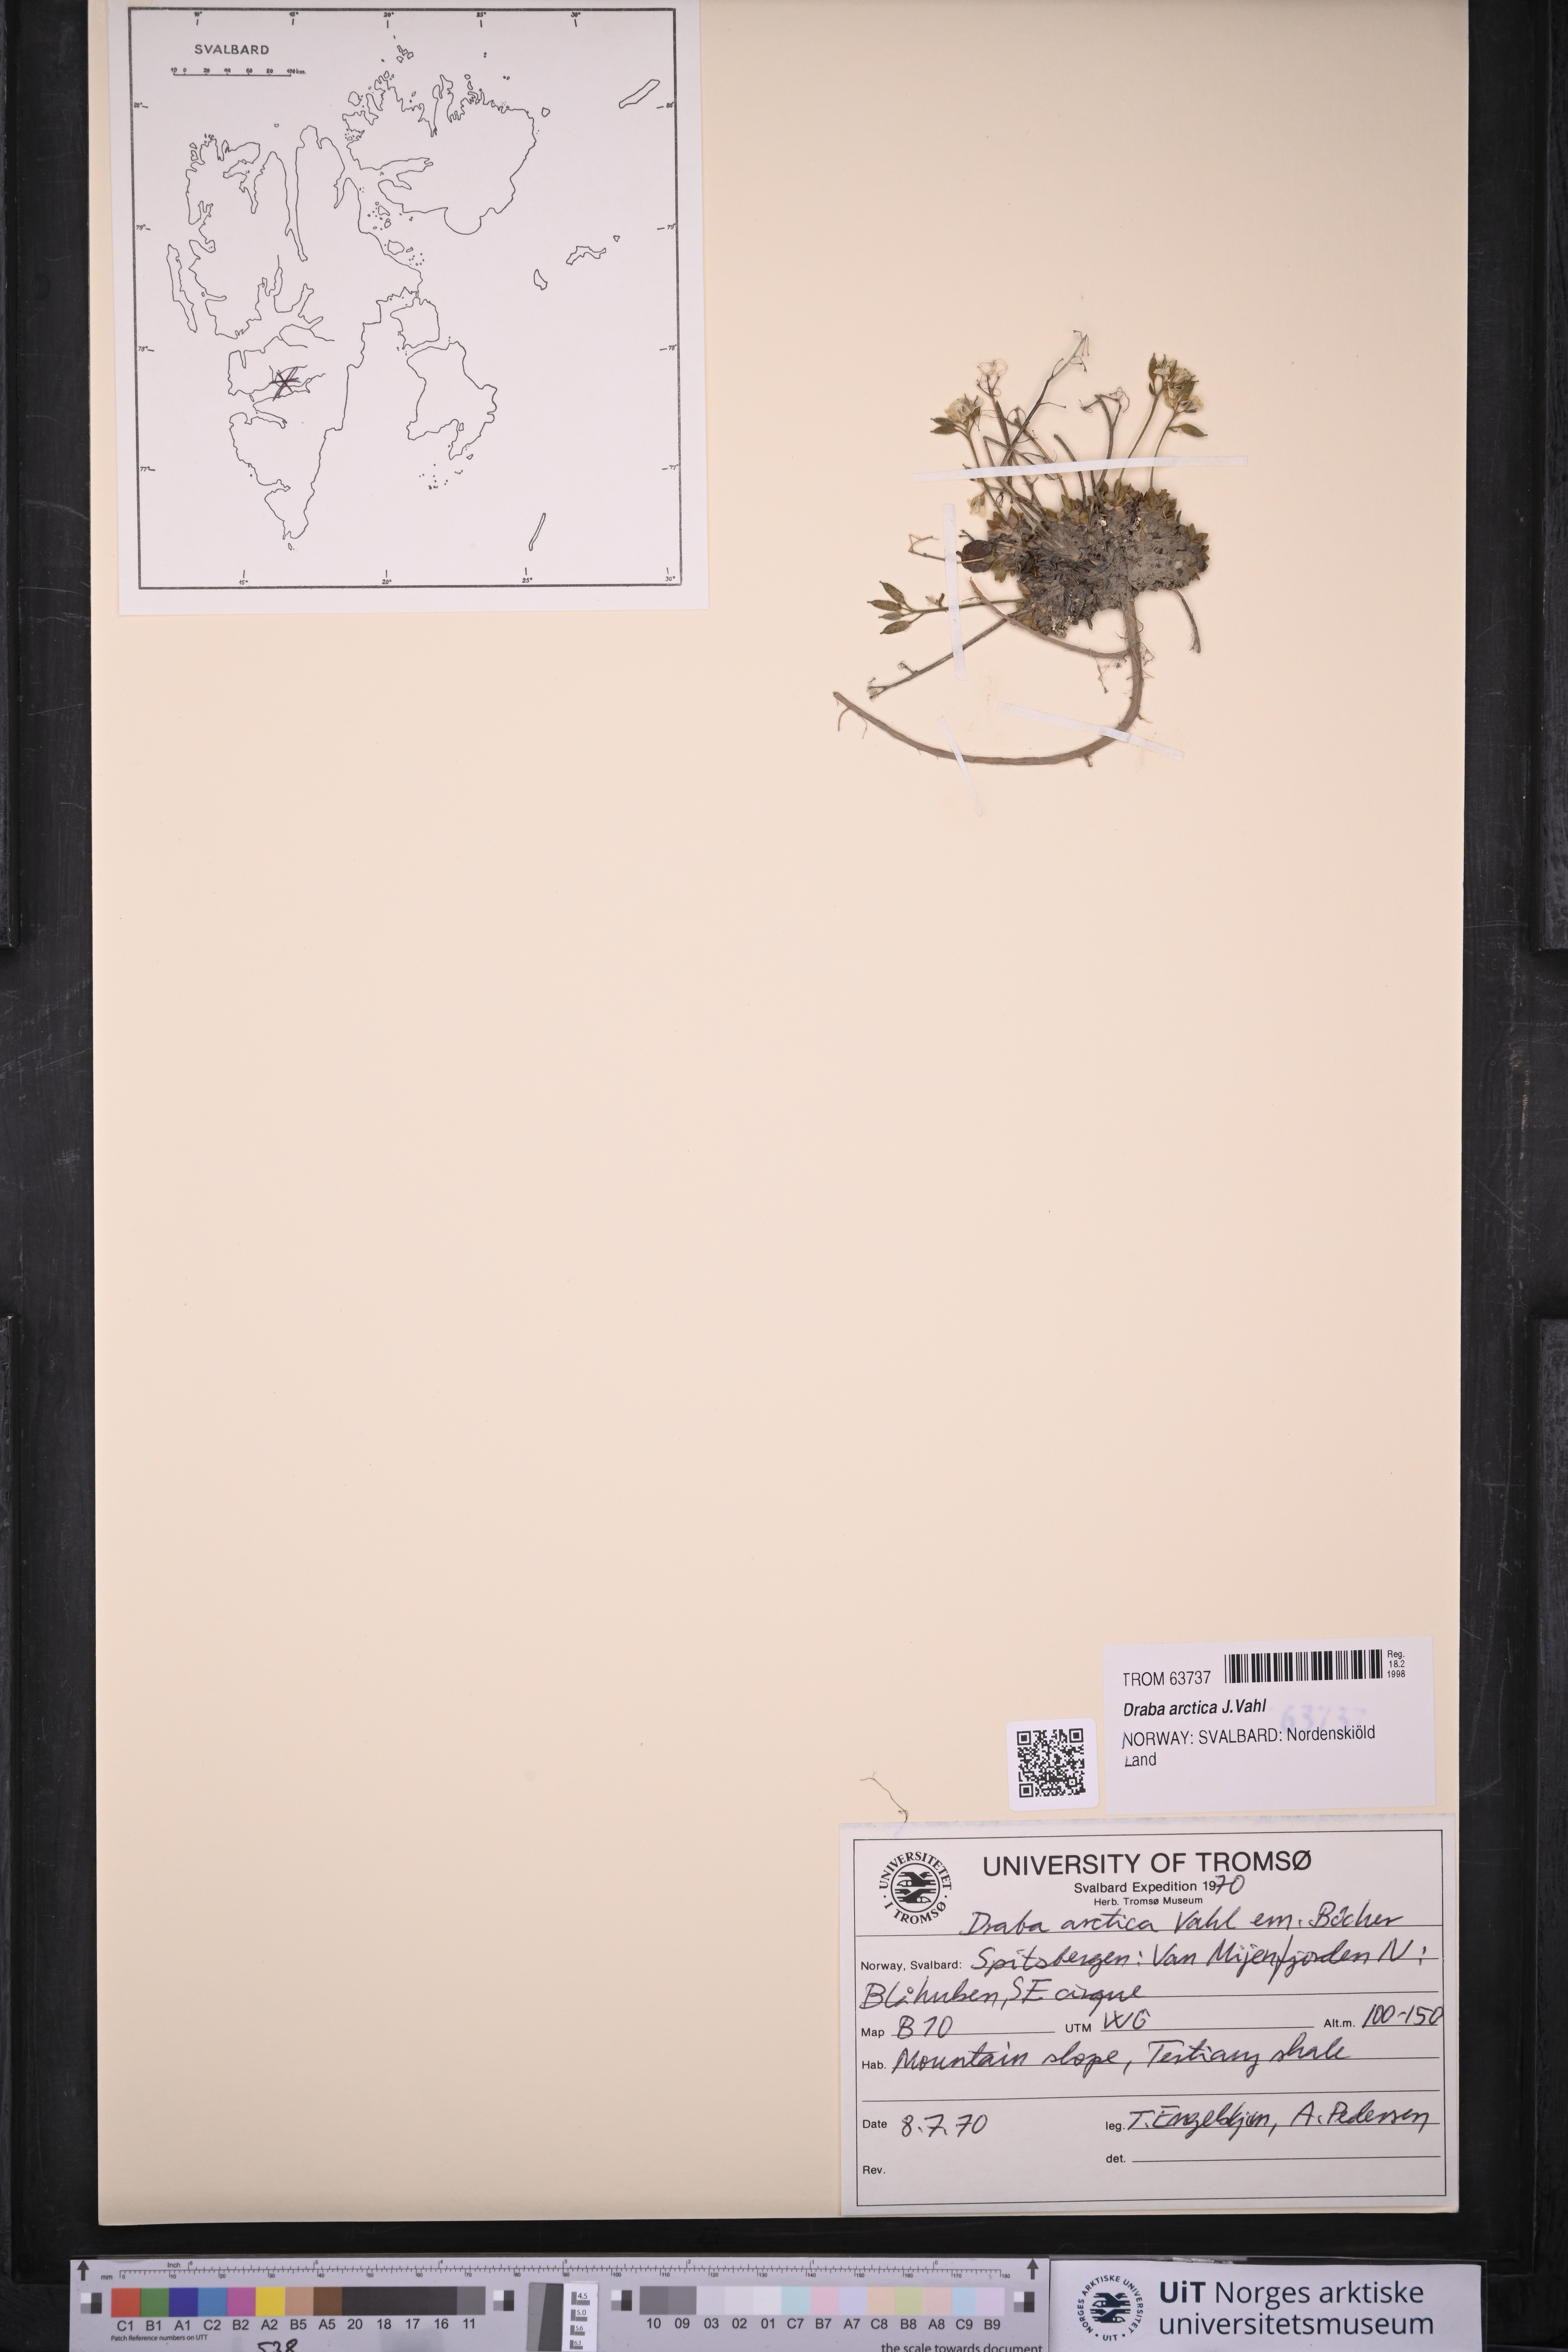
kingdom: Plantae
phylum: Tracheophyta
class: Magnoliopsida
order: Brassicales
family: Brassicaceae
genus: Draba
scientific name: Draba arctica
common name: Arctic draba
